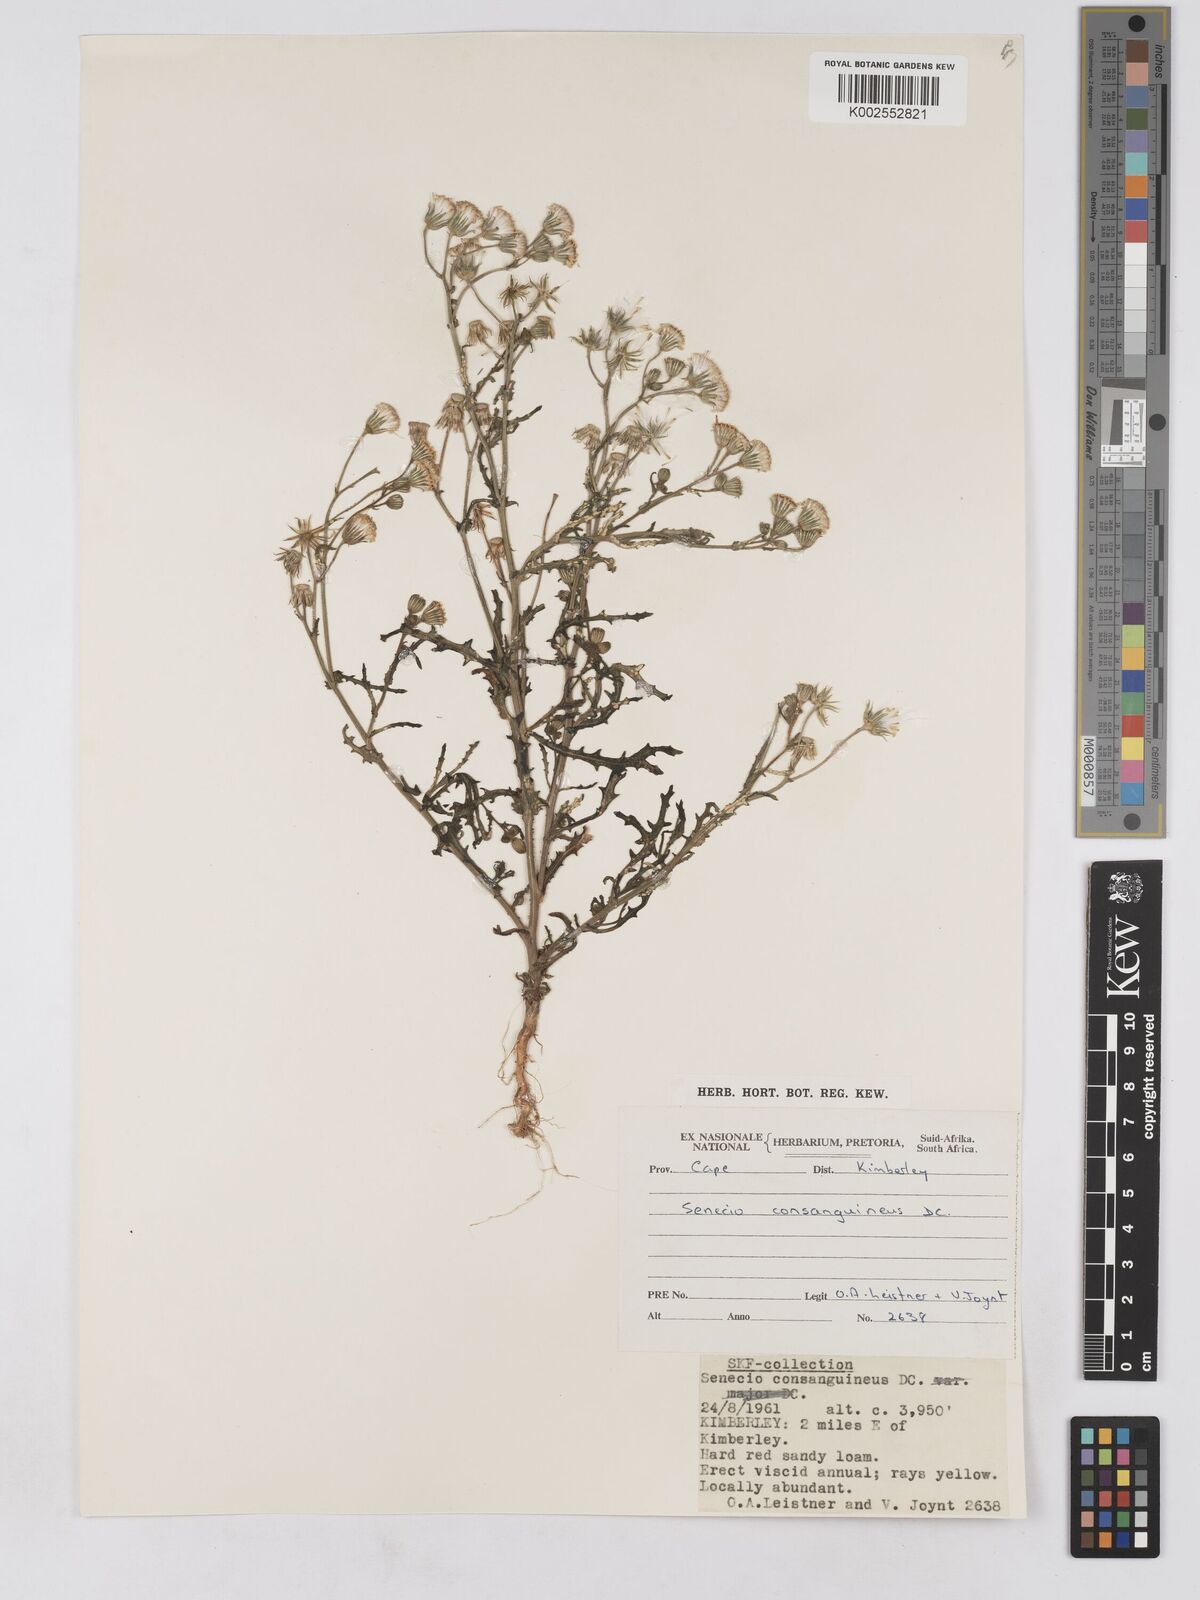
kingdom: Plantae
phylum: Tracheophyta
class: Magnoliopsida
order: Asterales
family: Asteraceae
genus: Senecio
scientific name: Senecio consanguineus
